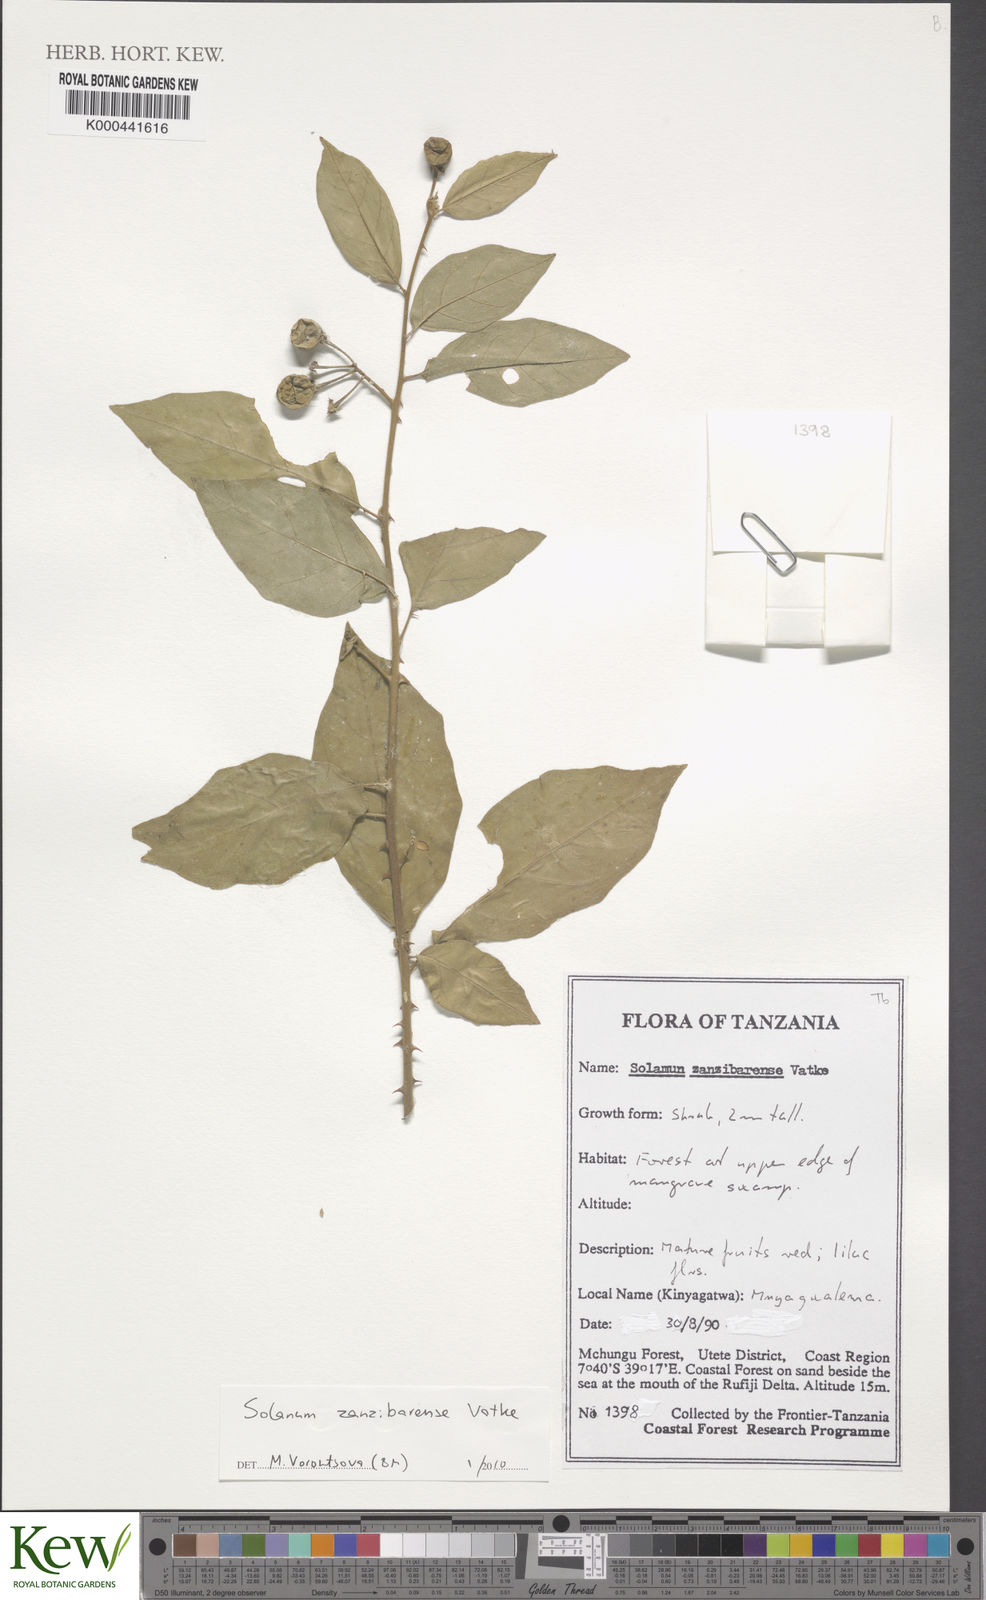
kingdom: Plantae
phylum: Tracheophyta
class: Magnoliopsida
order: Solanales
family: Solanaceae
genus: Solanum
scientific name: Solanum zanzibarense
